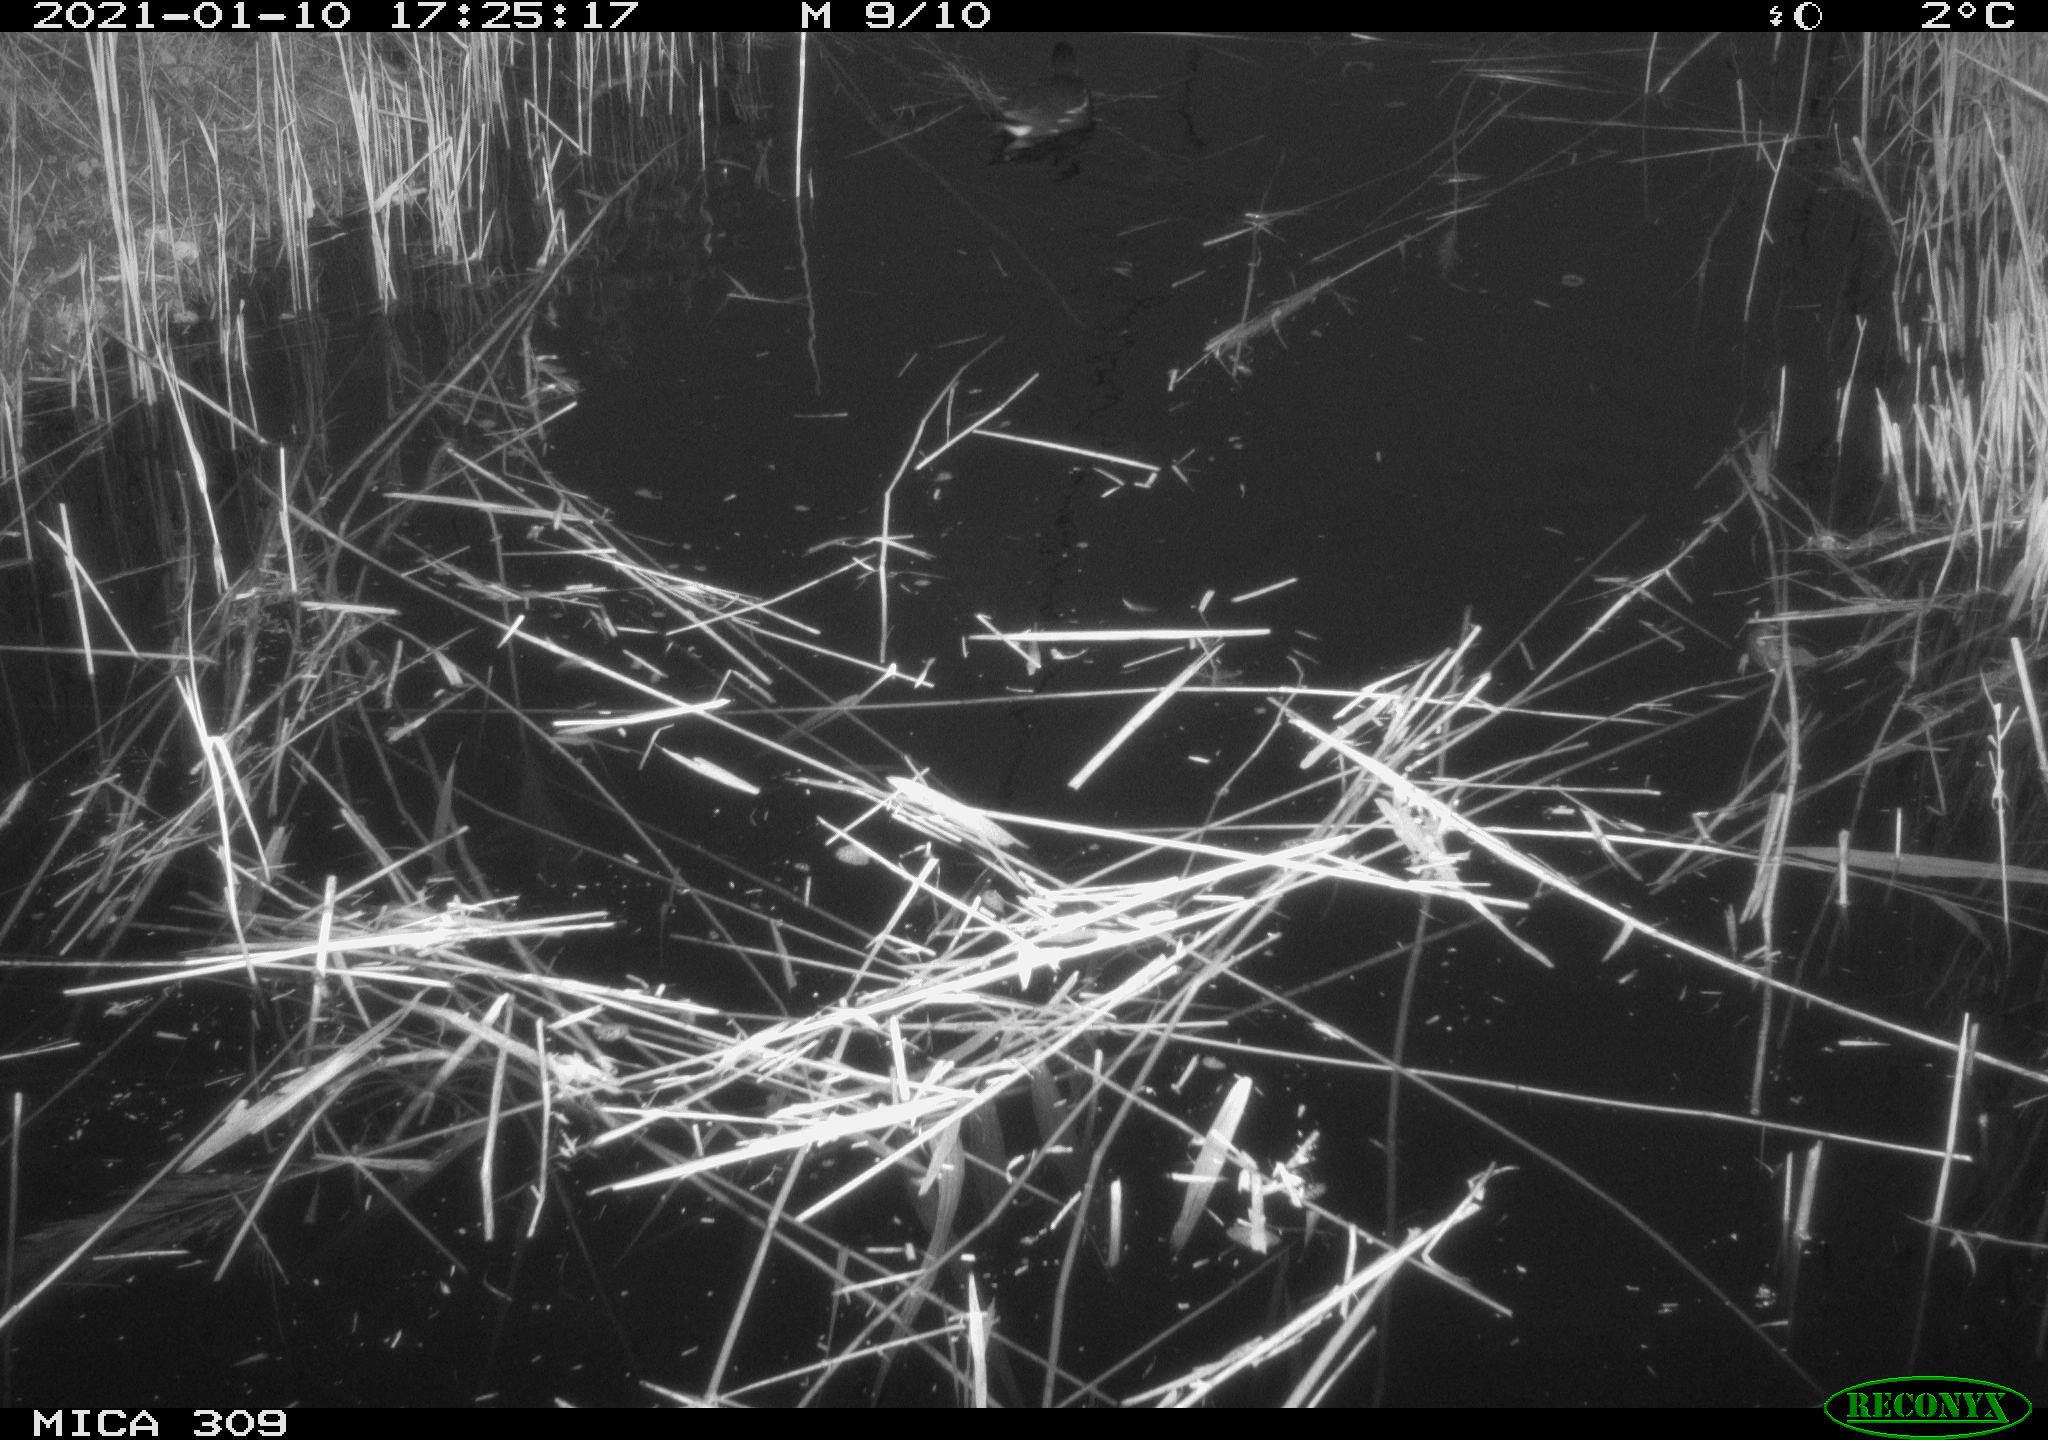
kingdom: Animalia
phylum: Chordata
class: Aves
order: Gruiformes
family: Rallidae
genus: Gallinula
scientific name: Gallinula chloropus
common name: Common moorhen
